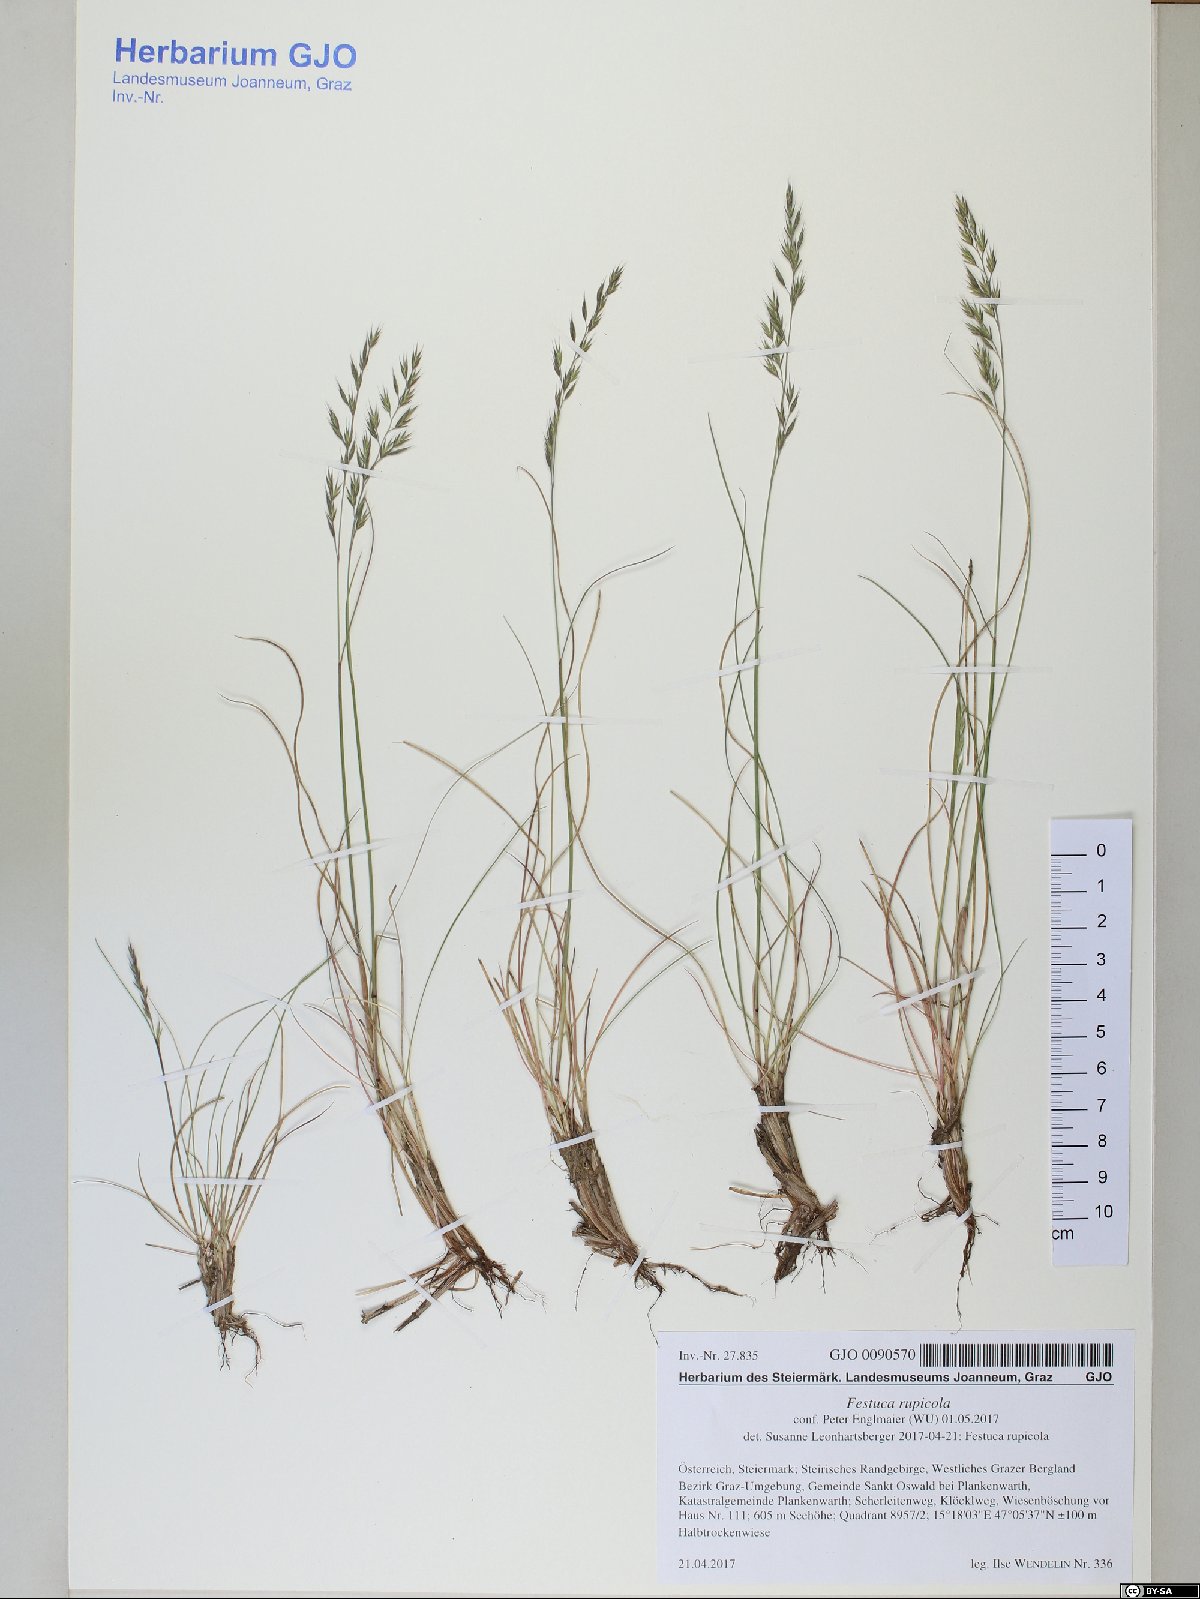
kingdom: Plantae
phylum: Tracheophyta
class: Liliopsida
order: Poales
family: Poaceae
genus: Festuca
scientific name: Festuca rupicola
